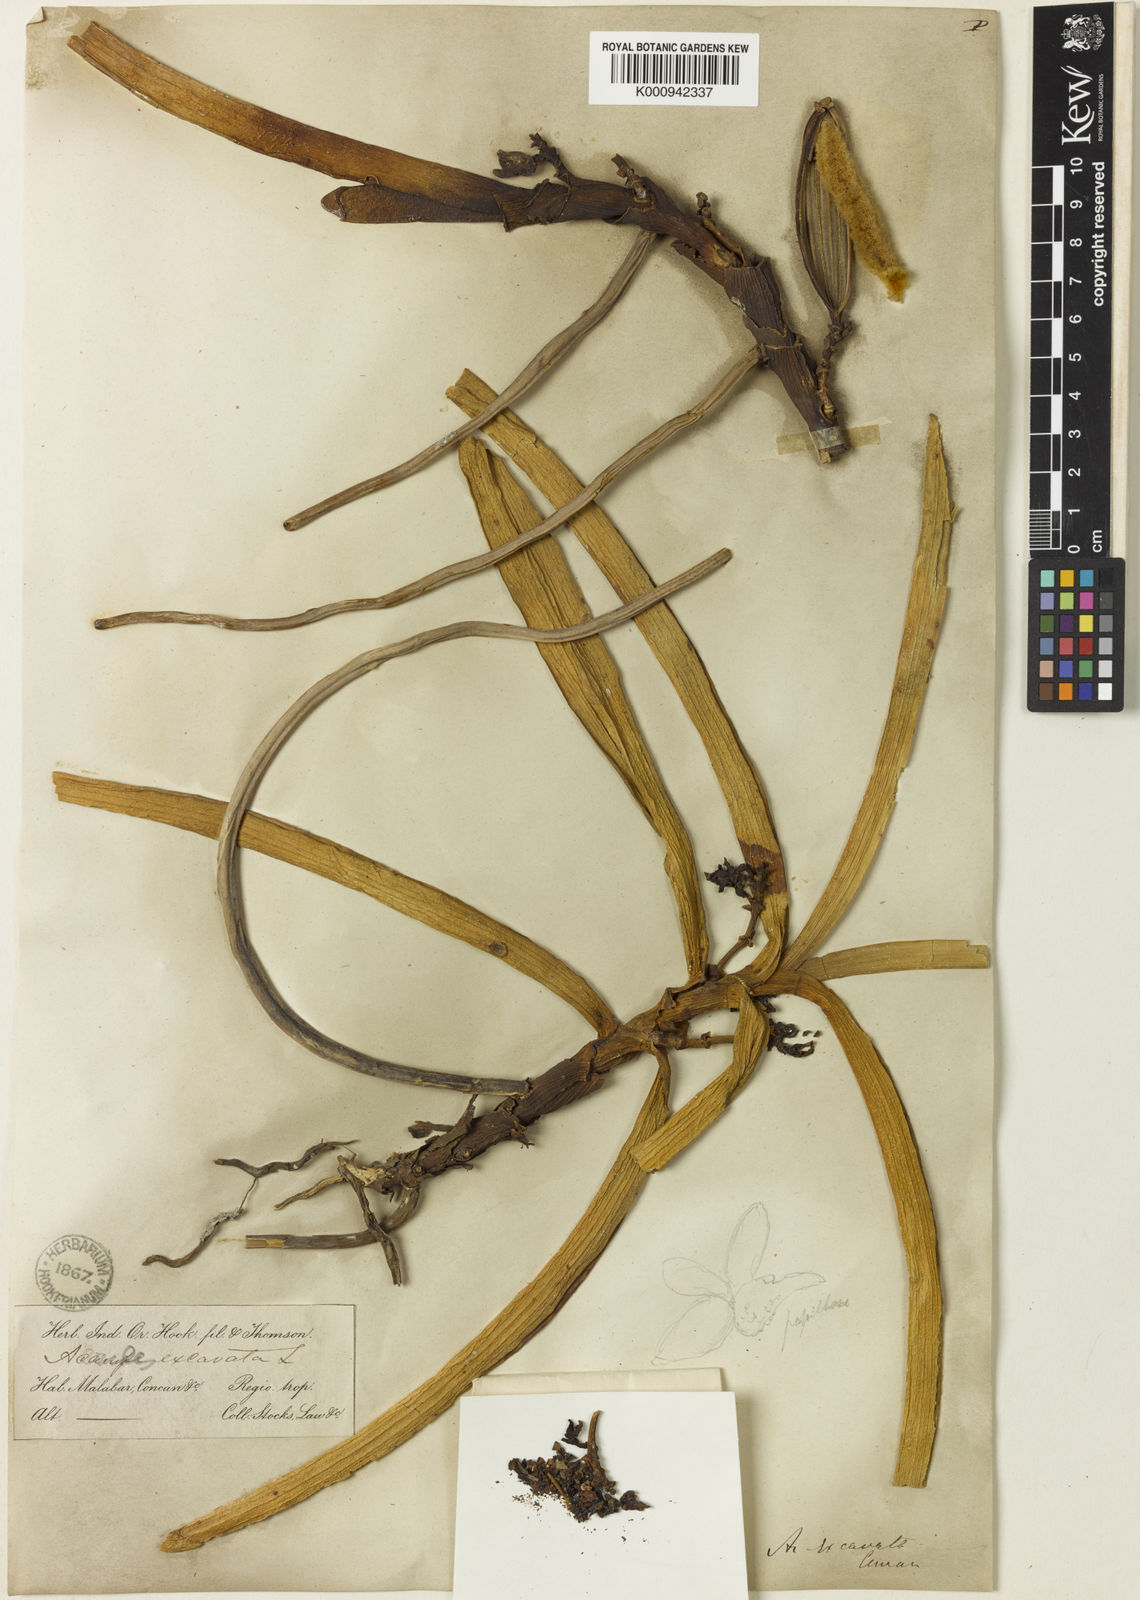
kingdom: Plantae
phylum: Tracheophyta
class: Liliopsida
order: Asparagales
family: Orchidaceae
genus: Acampe
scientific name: Acampe praemorsa
